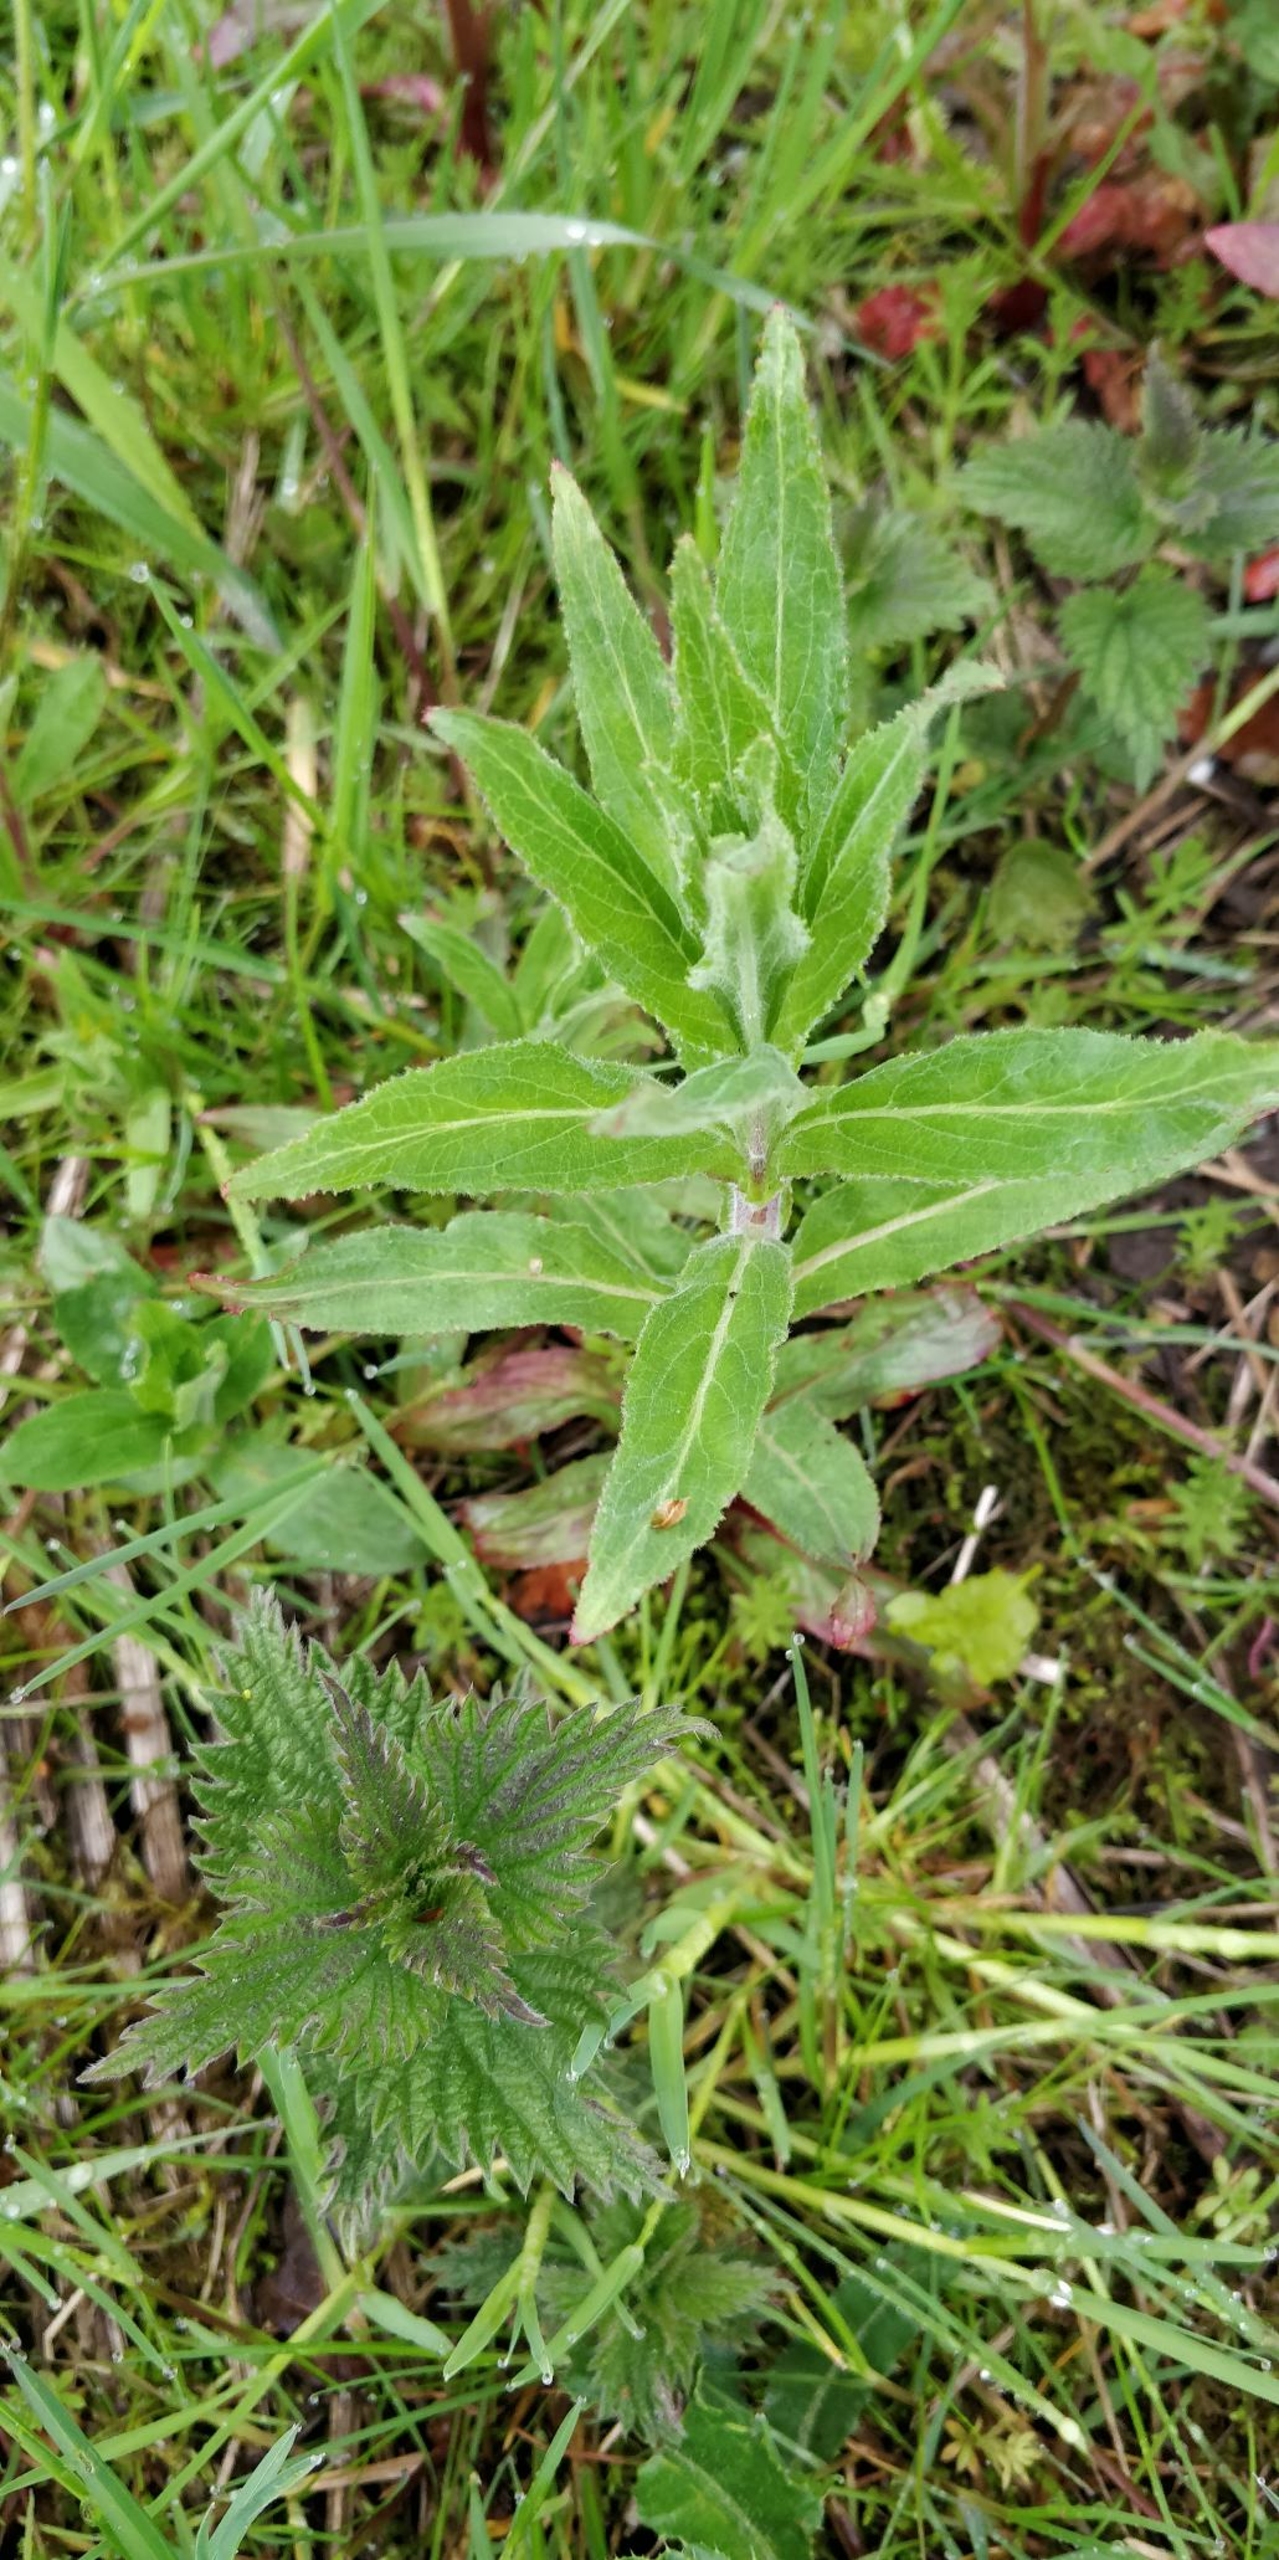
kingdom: Plantae
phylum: Tracheophyta
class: Magnoliopsida
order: Myrtales
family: Onagraceae
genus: Epilobium
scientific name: Epilobium hirsutum
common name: Lådden dueurt
